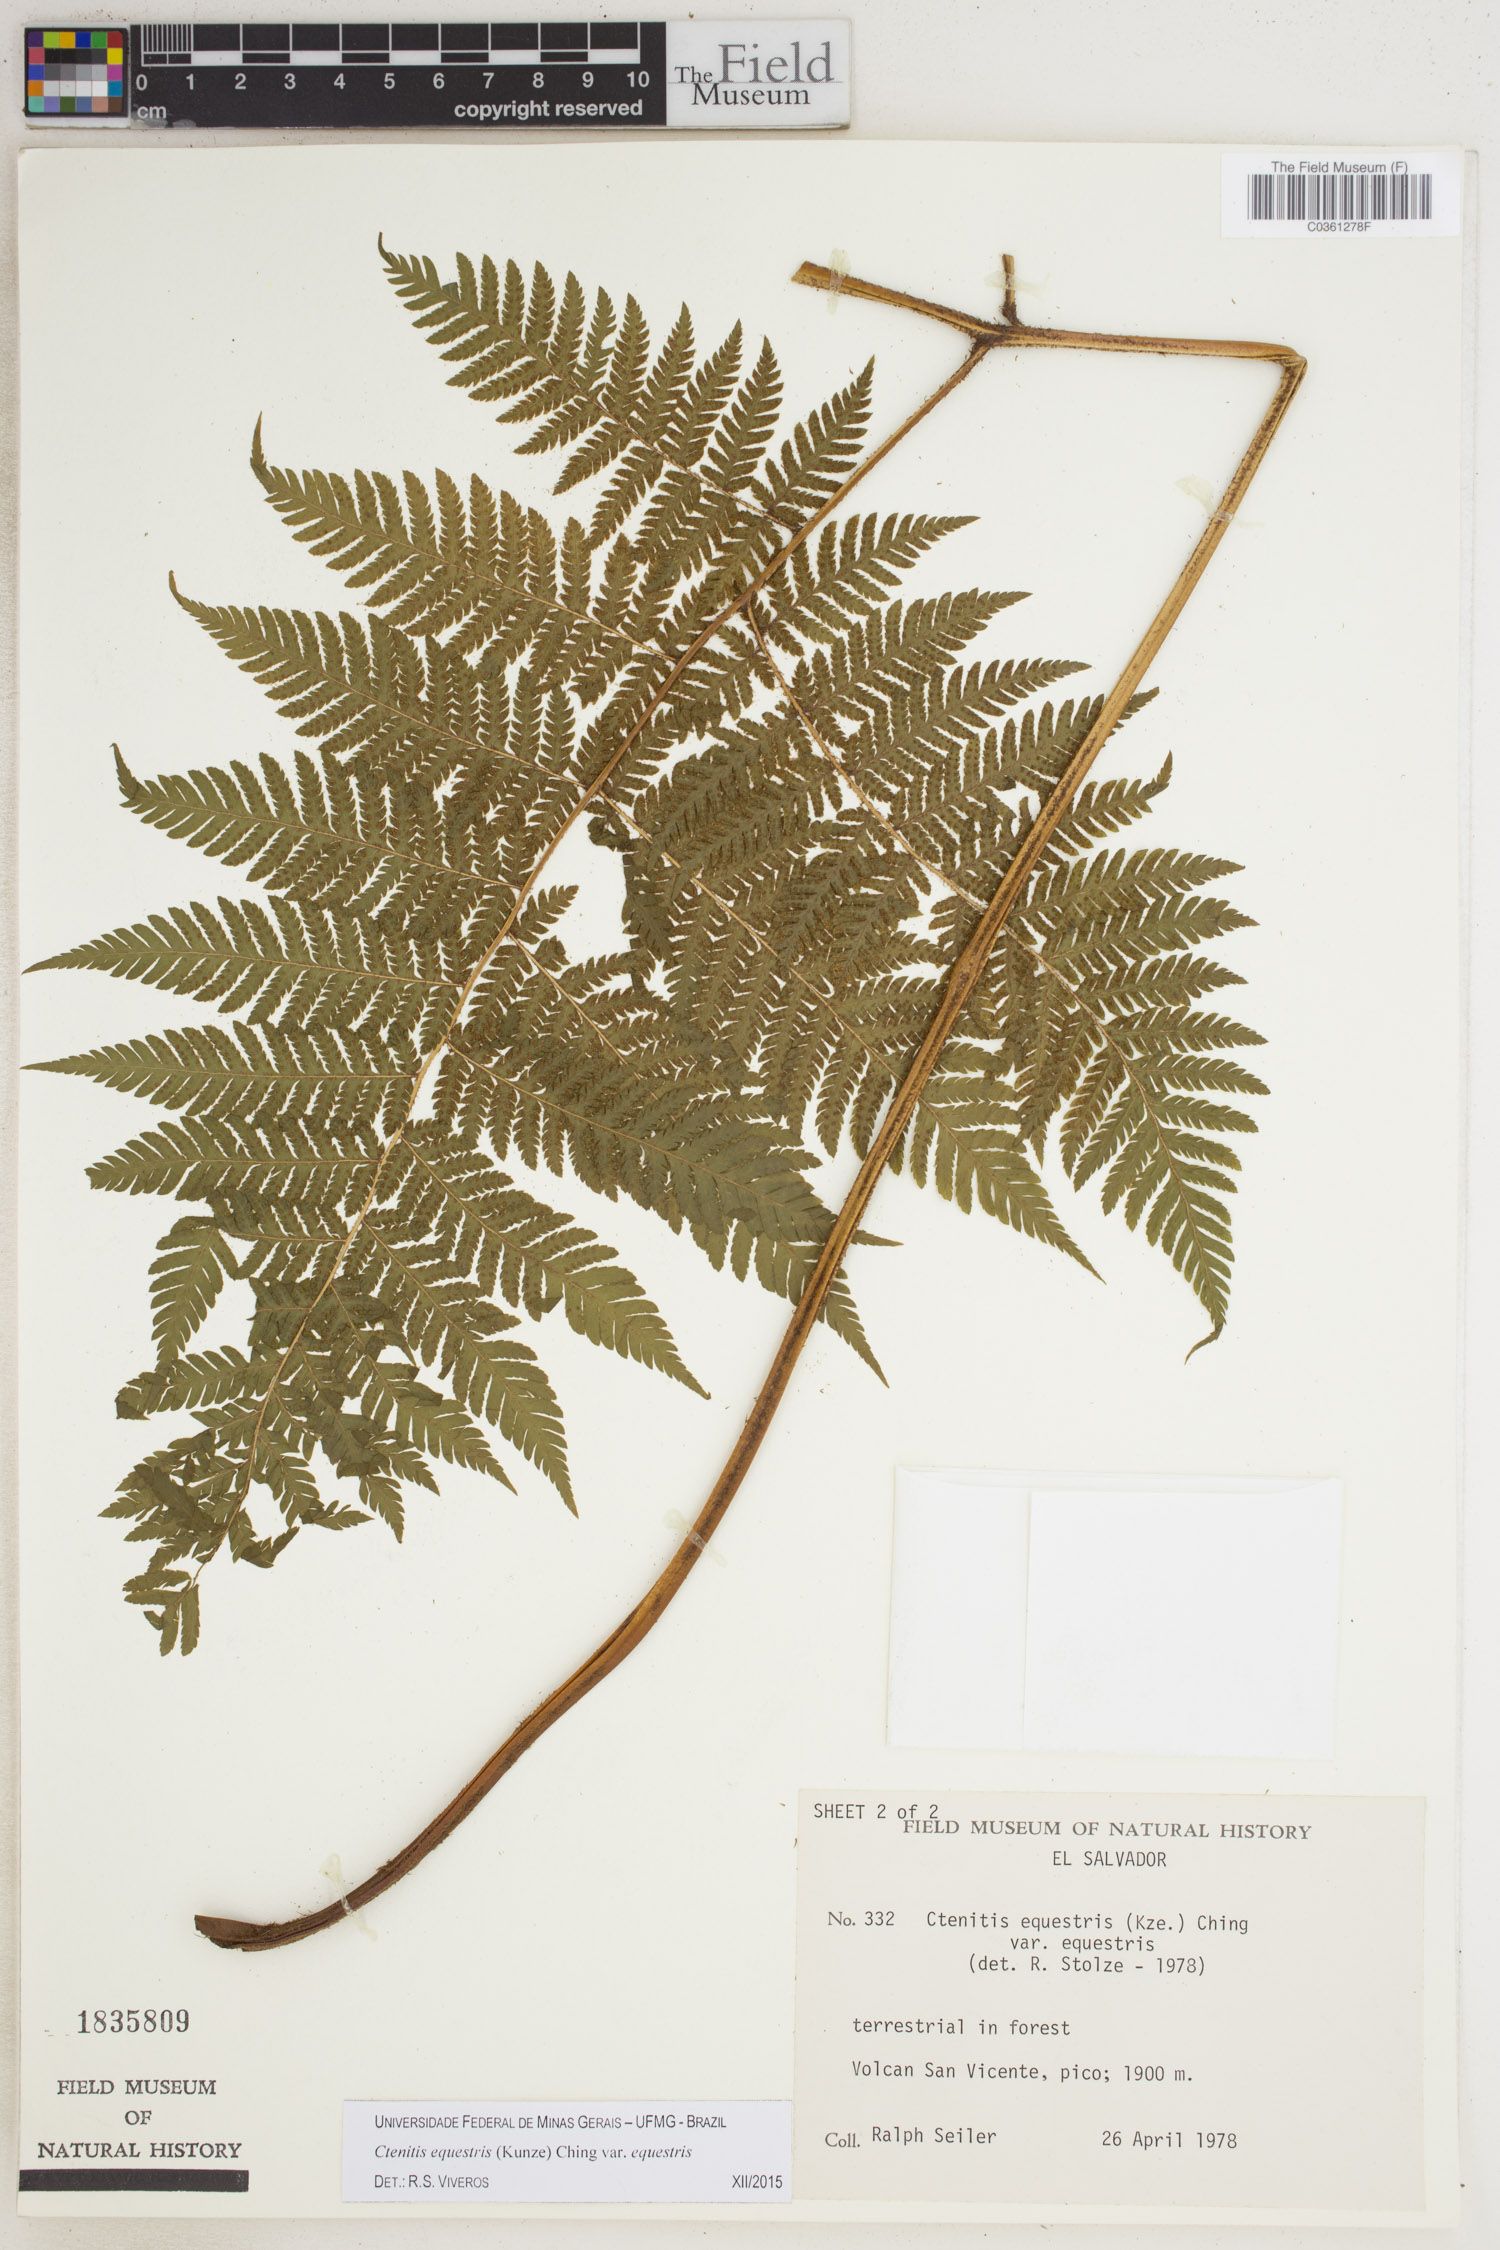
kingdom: Plantae
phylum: Tracheophyta
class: Polypodiopsida
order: Polypodiales
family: Dryopteridaceae
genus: Ctenitis
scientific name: Ctenitis equestris
